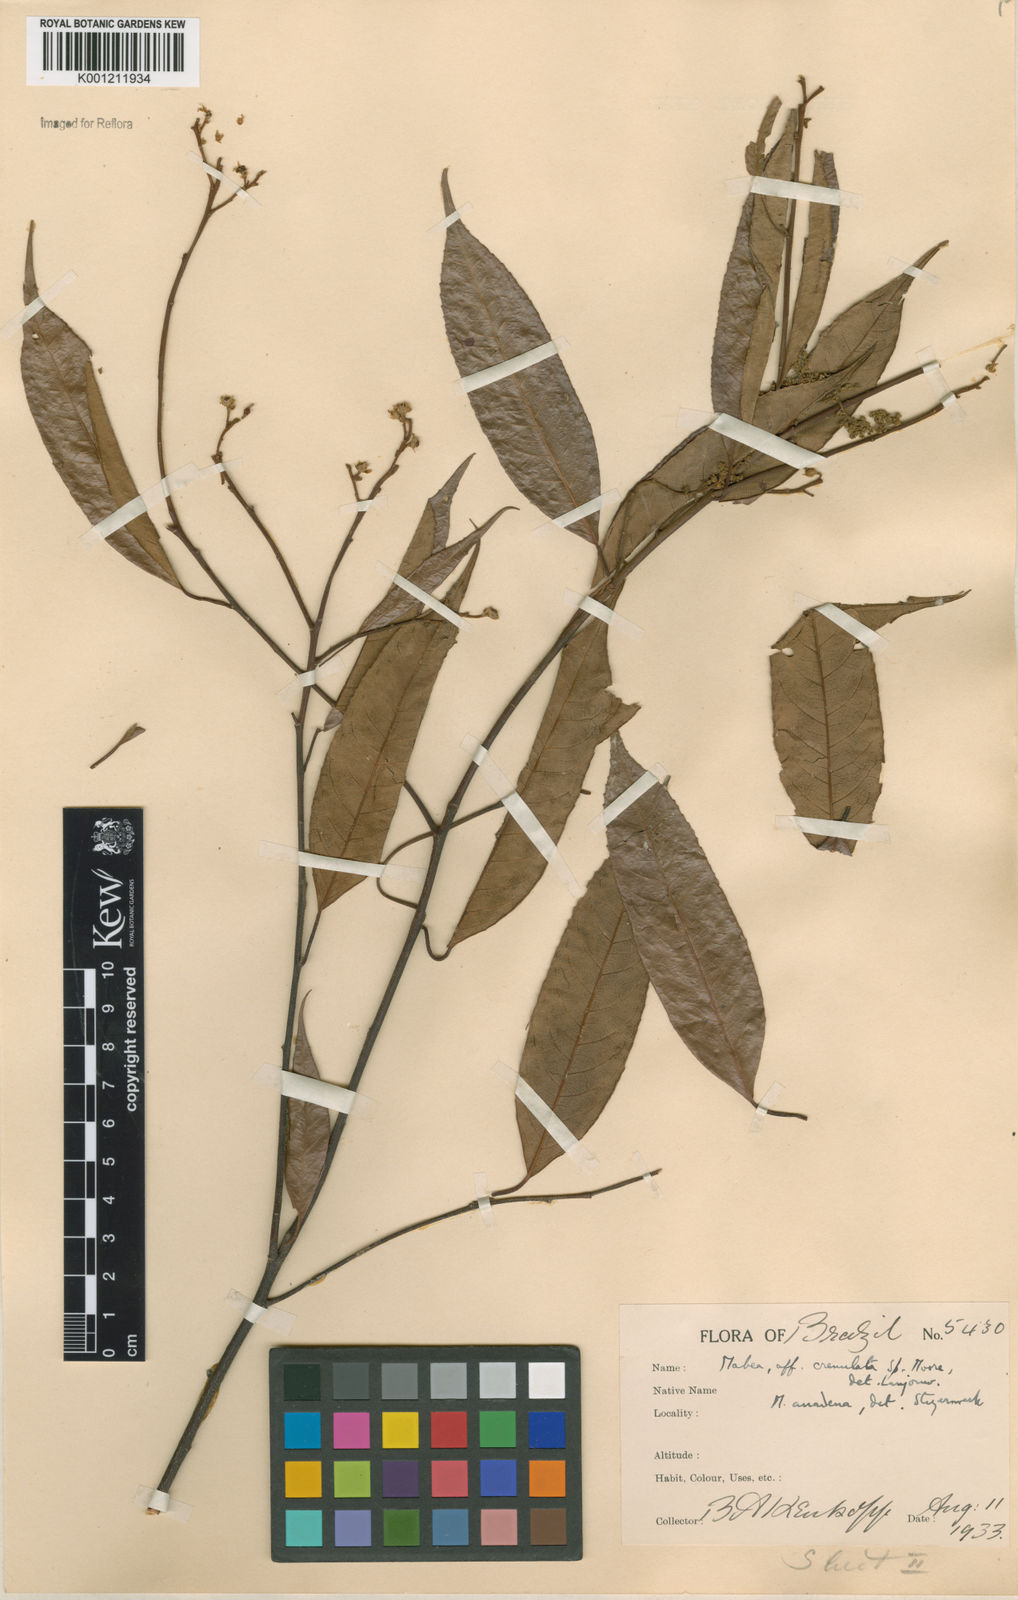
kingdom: Plantae
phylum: Tracheophyta
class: Magnoliopsida
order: Malpighiales
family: Euphorbiaceae
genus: Mabea
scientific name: Mabea anadena
